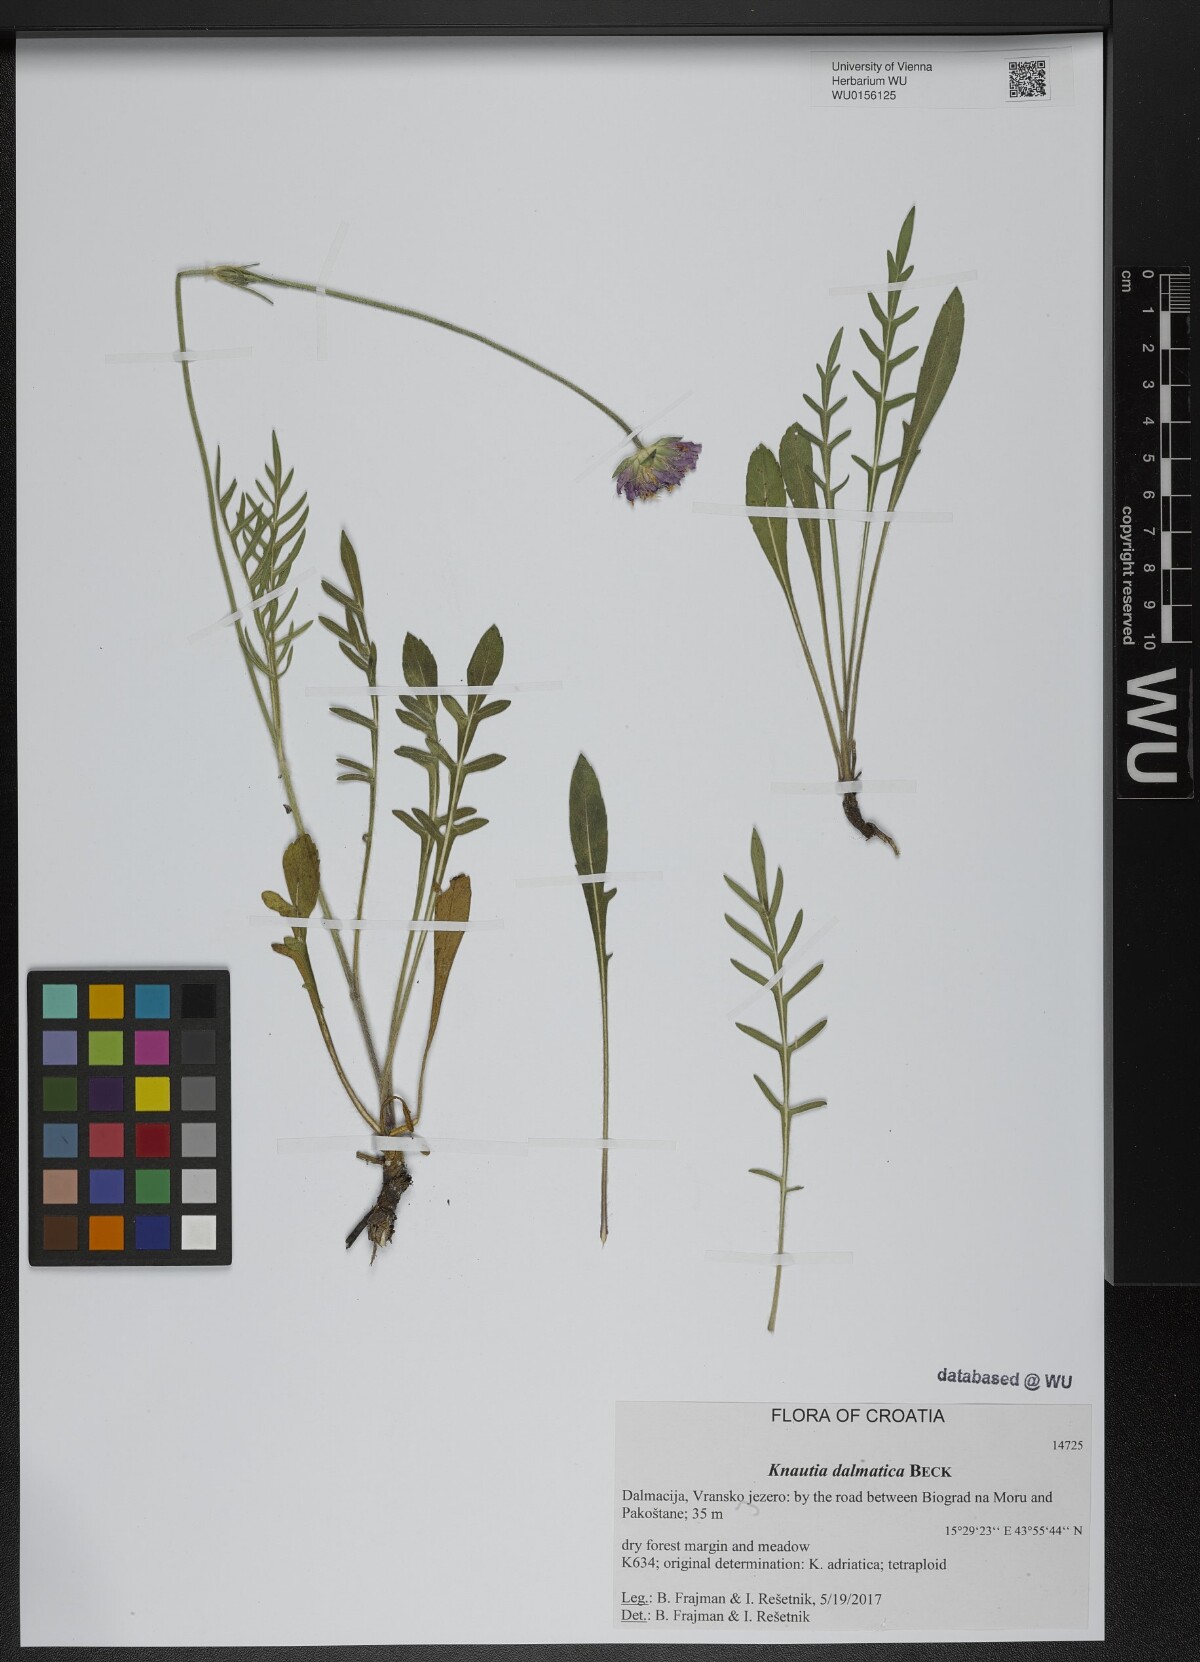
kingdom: Plantae
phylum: Tracheophyta
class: Magnoliopsida
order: Dipsacales
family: Caprifoliaceae
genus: Knautia
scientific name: Knautia dalmatica
